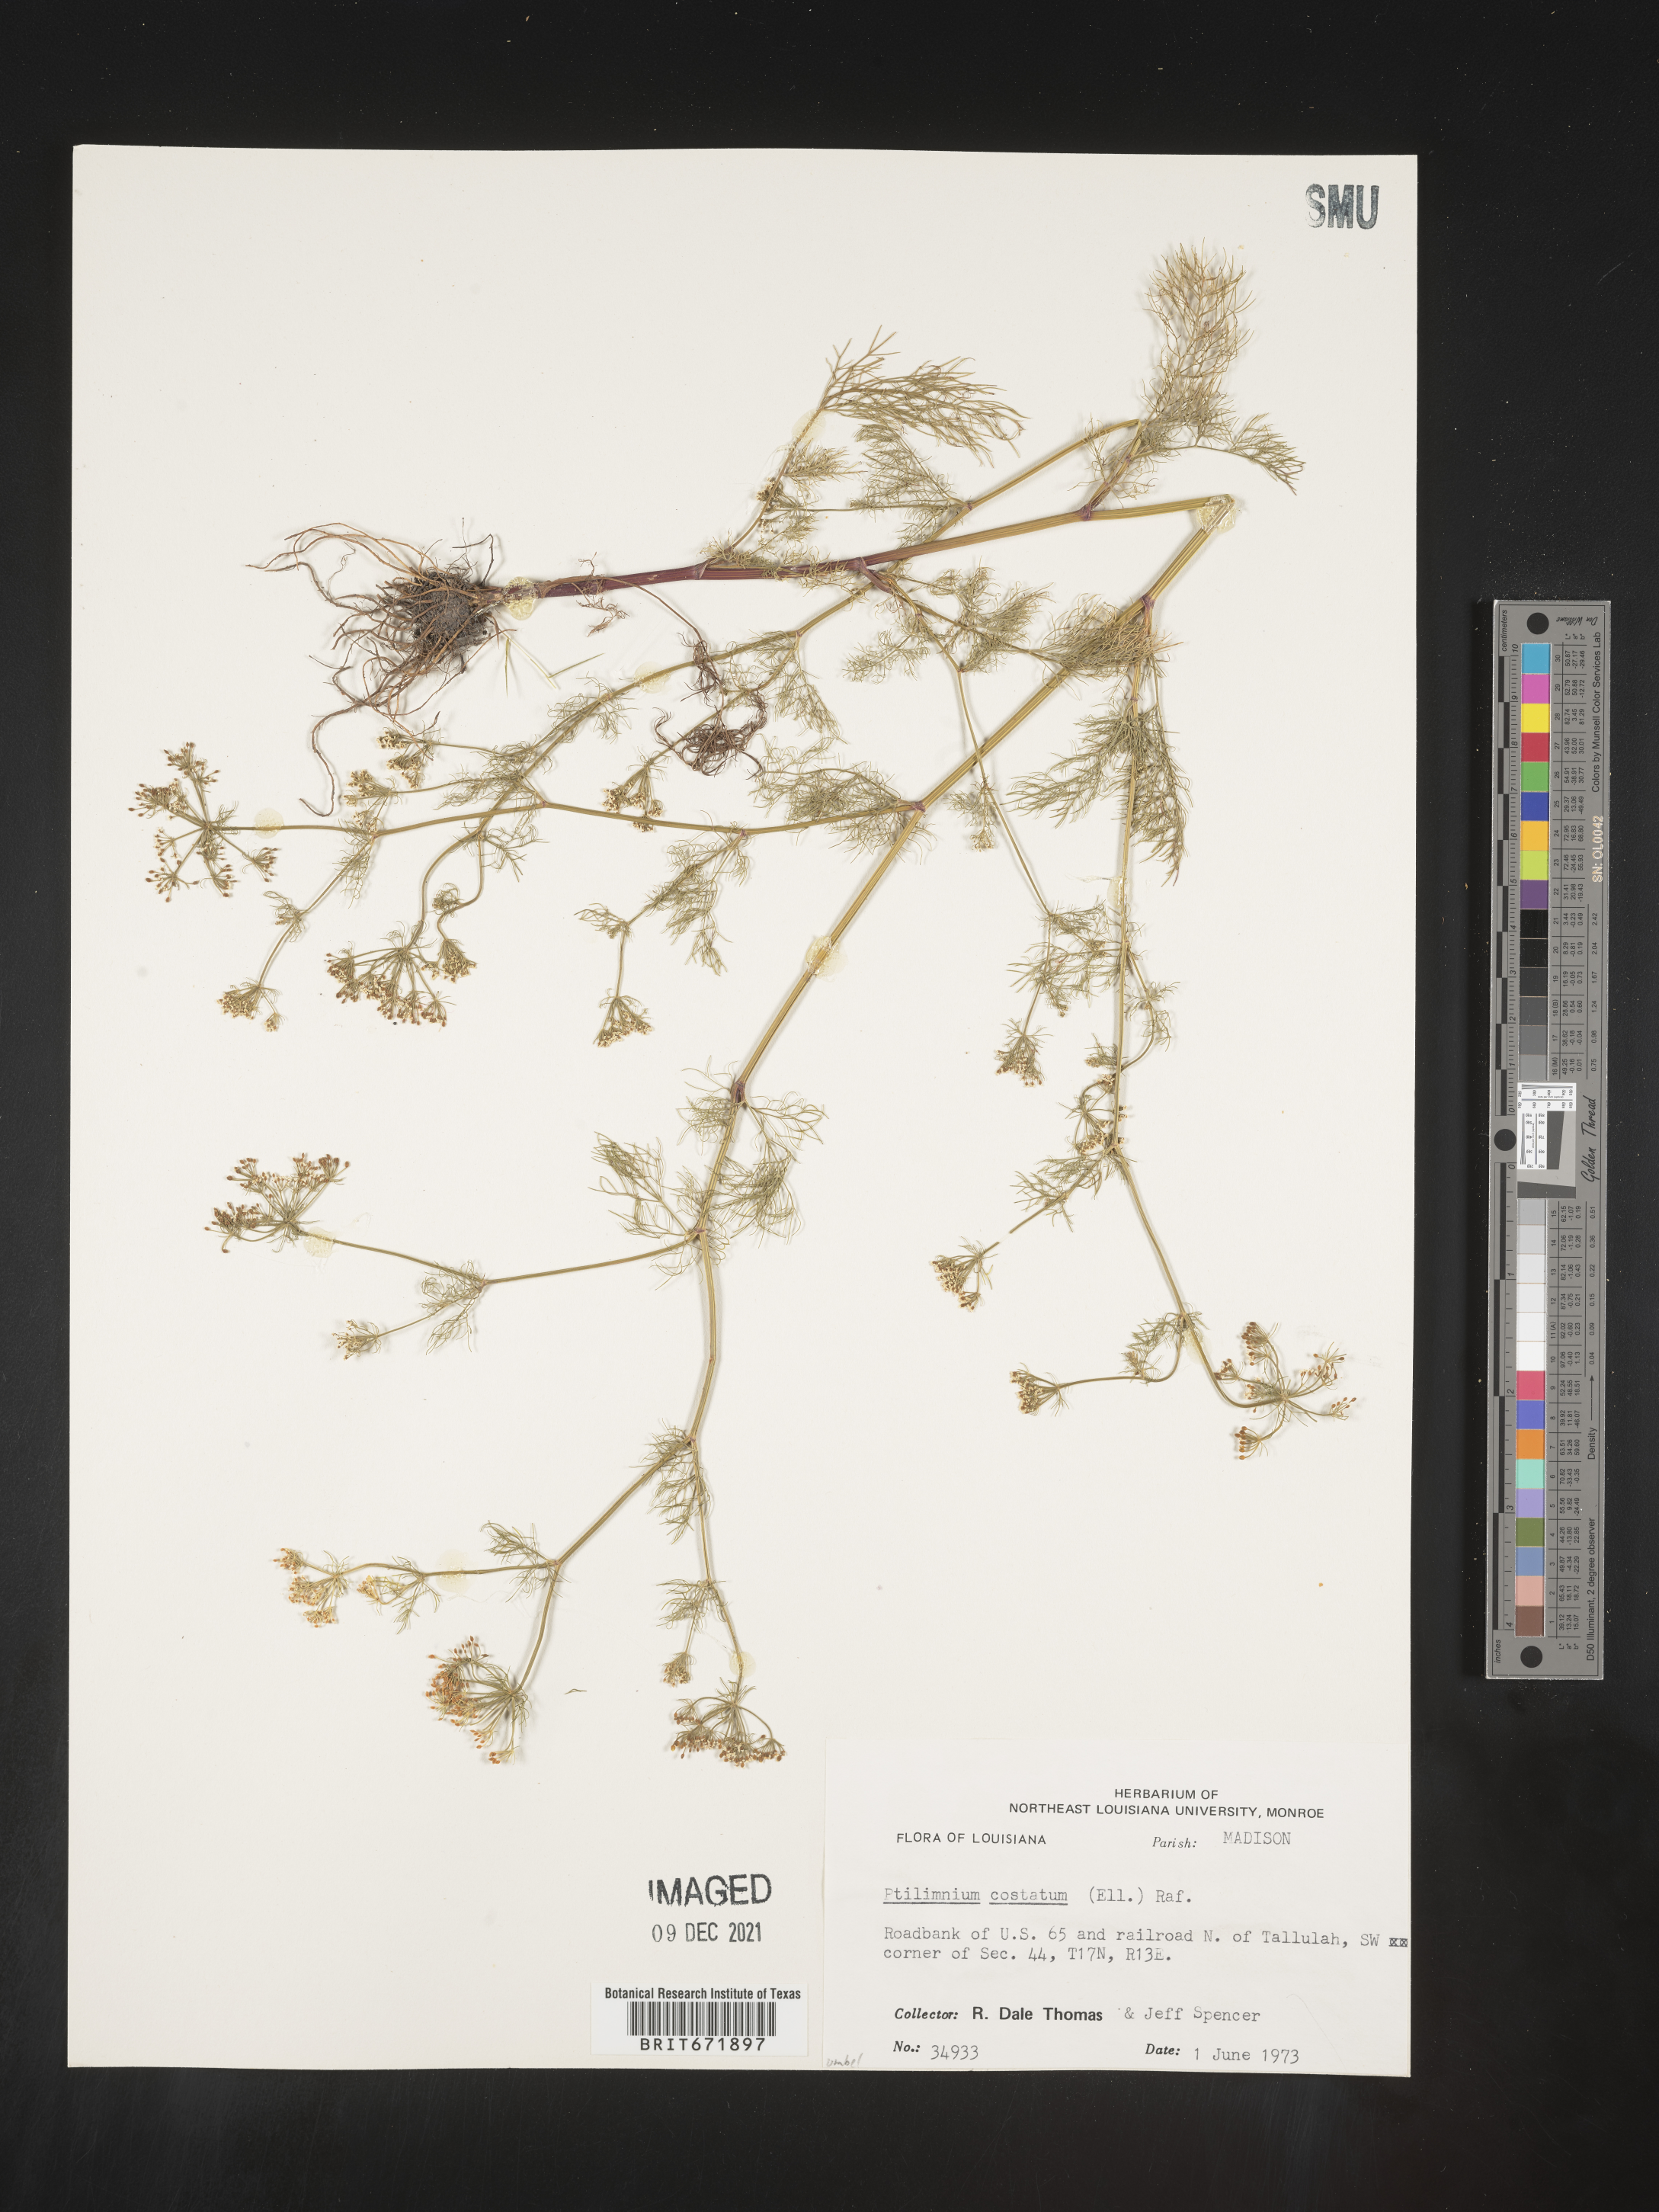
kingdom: Plantae
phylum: Tracheophyta
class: Magnoliopsida
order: Apiales
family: Apiaceae
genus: Ptilimnium
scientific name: Ptilimnium costatum
